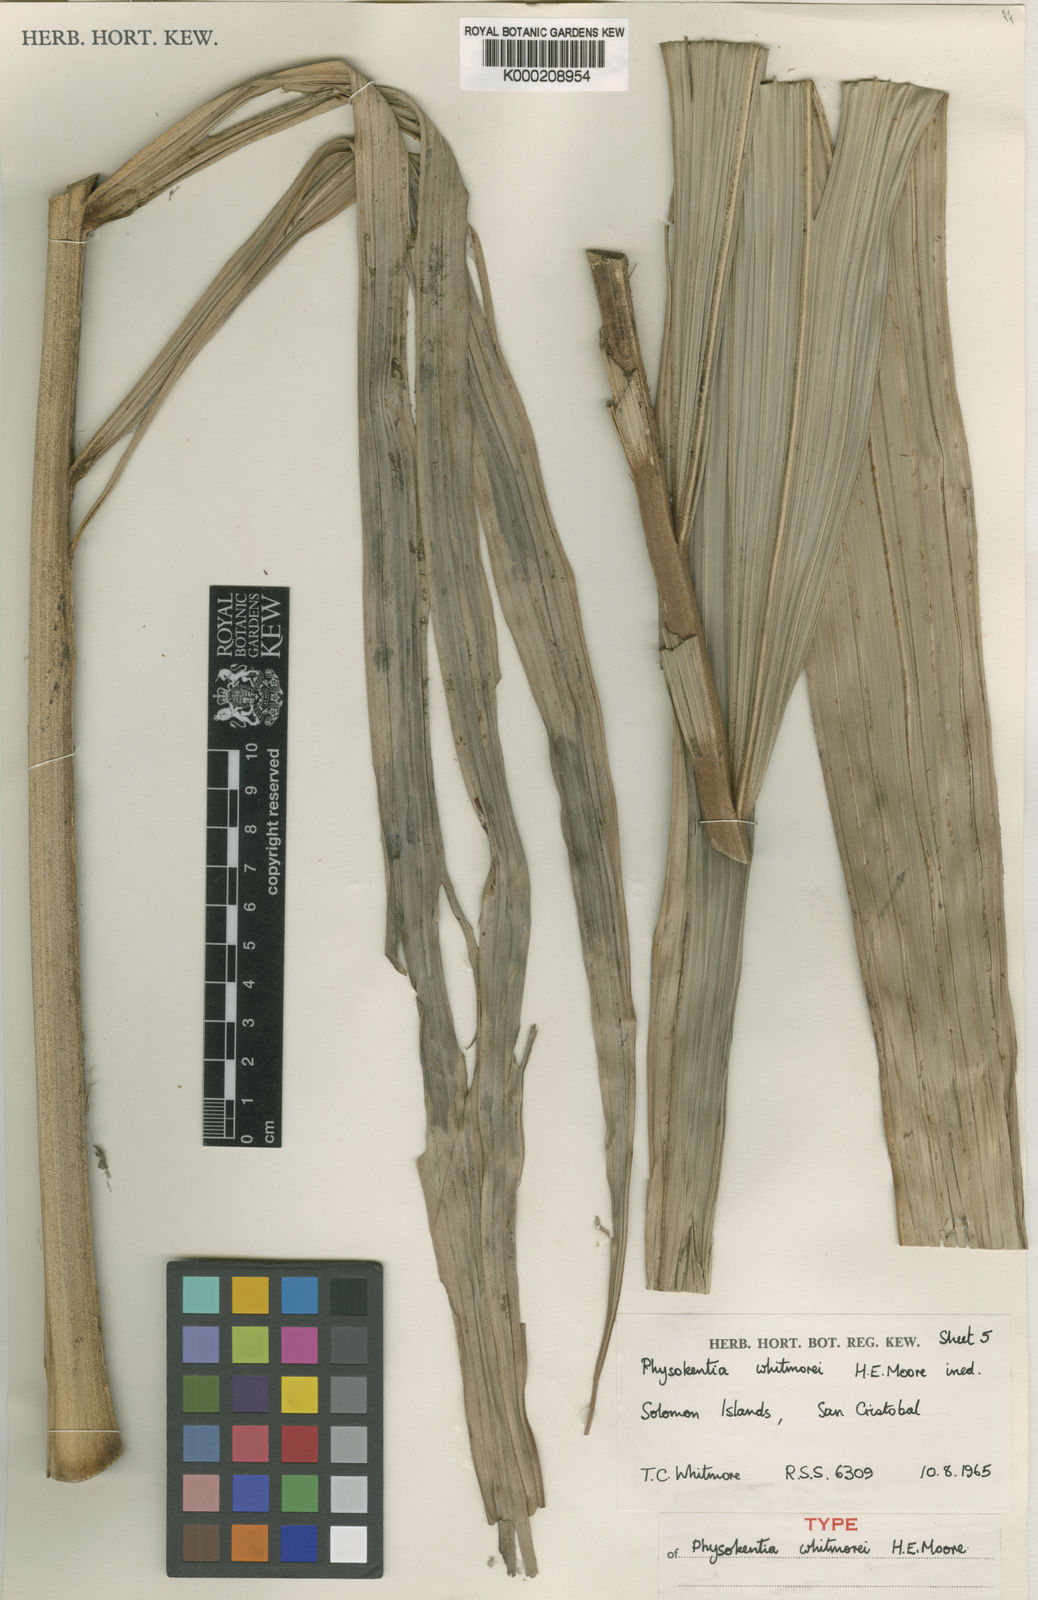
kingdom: Plantae
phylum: Tracheophyta
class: Liliopsida
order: Arecales
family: Arecaceae
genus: Physokentia
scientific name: Physokentia whitmorei
